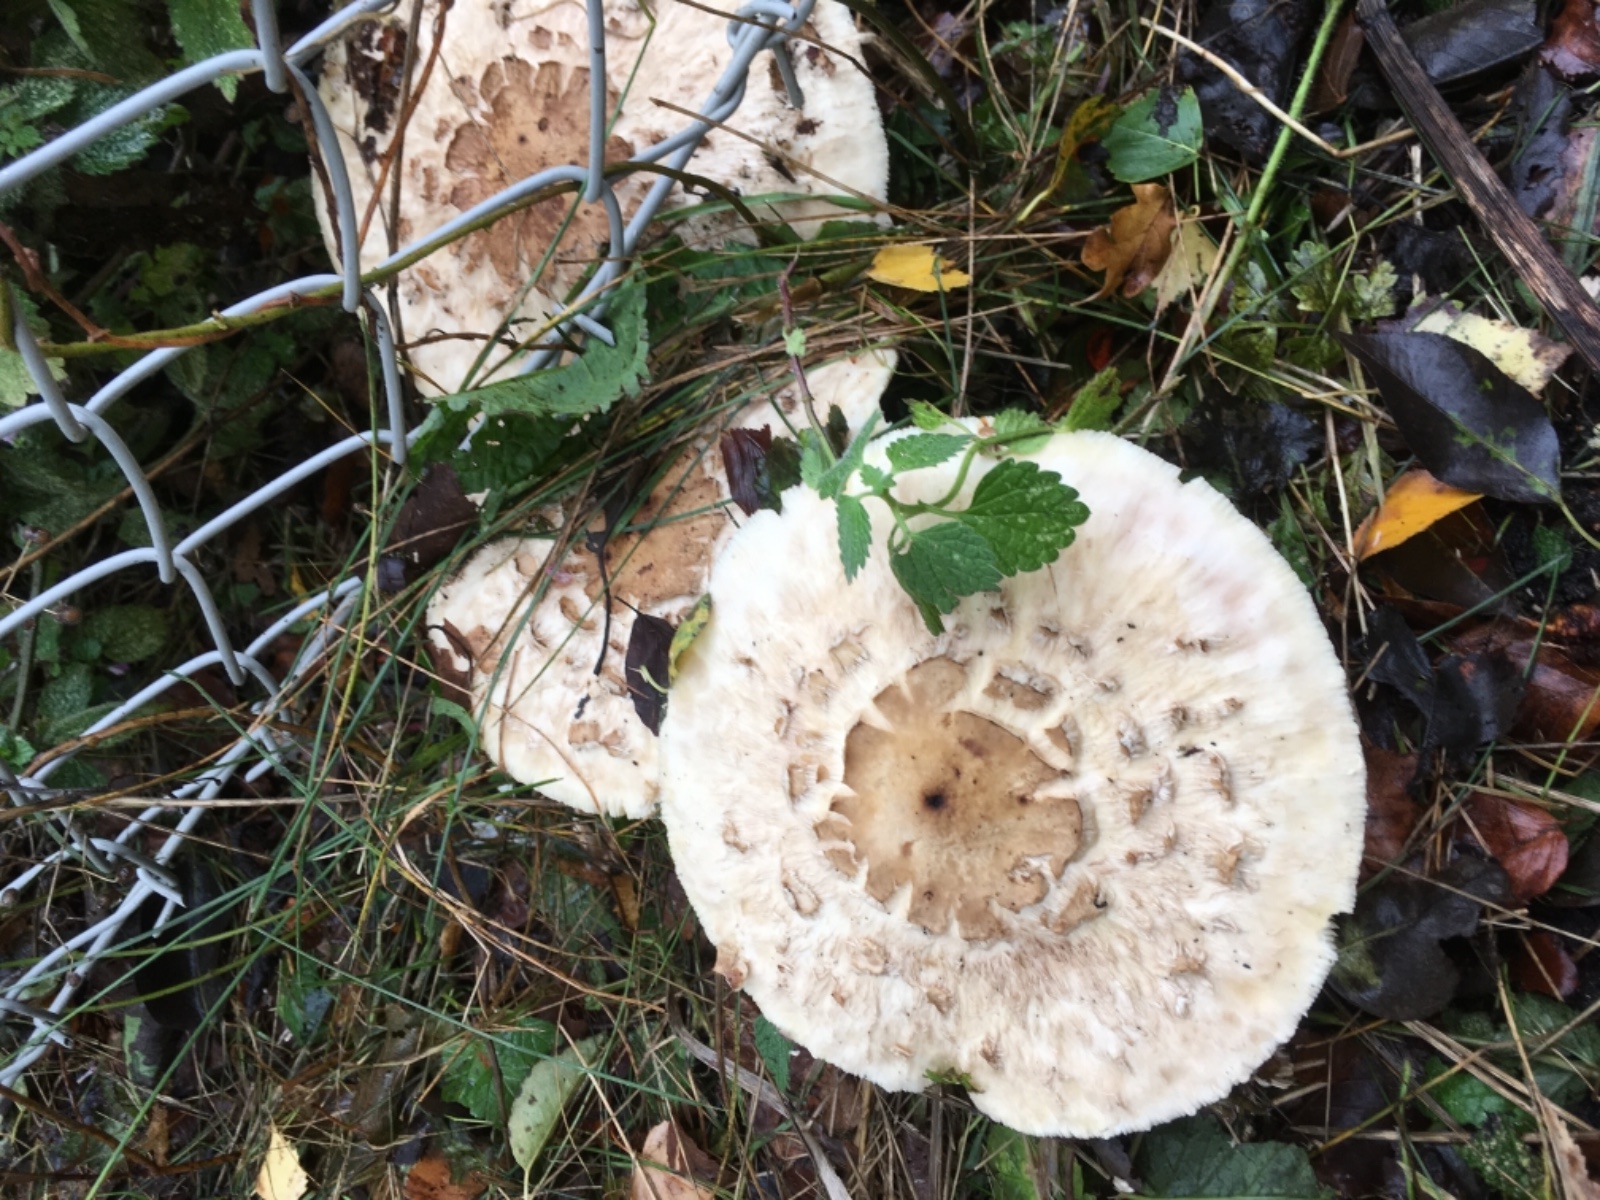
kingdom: Fungi
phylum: Basidiomycota
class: Agaricomycetes
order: Agaricales
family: Agaricaceae
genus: Chlorophyllum
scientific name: Chlorophyllum rhacodes
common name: ægte rabarberhat
